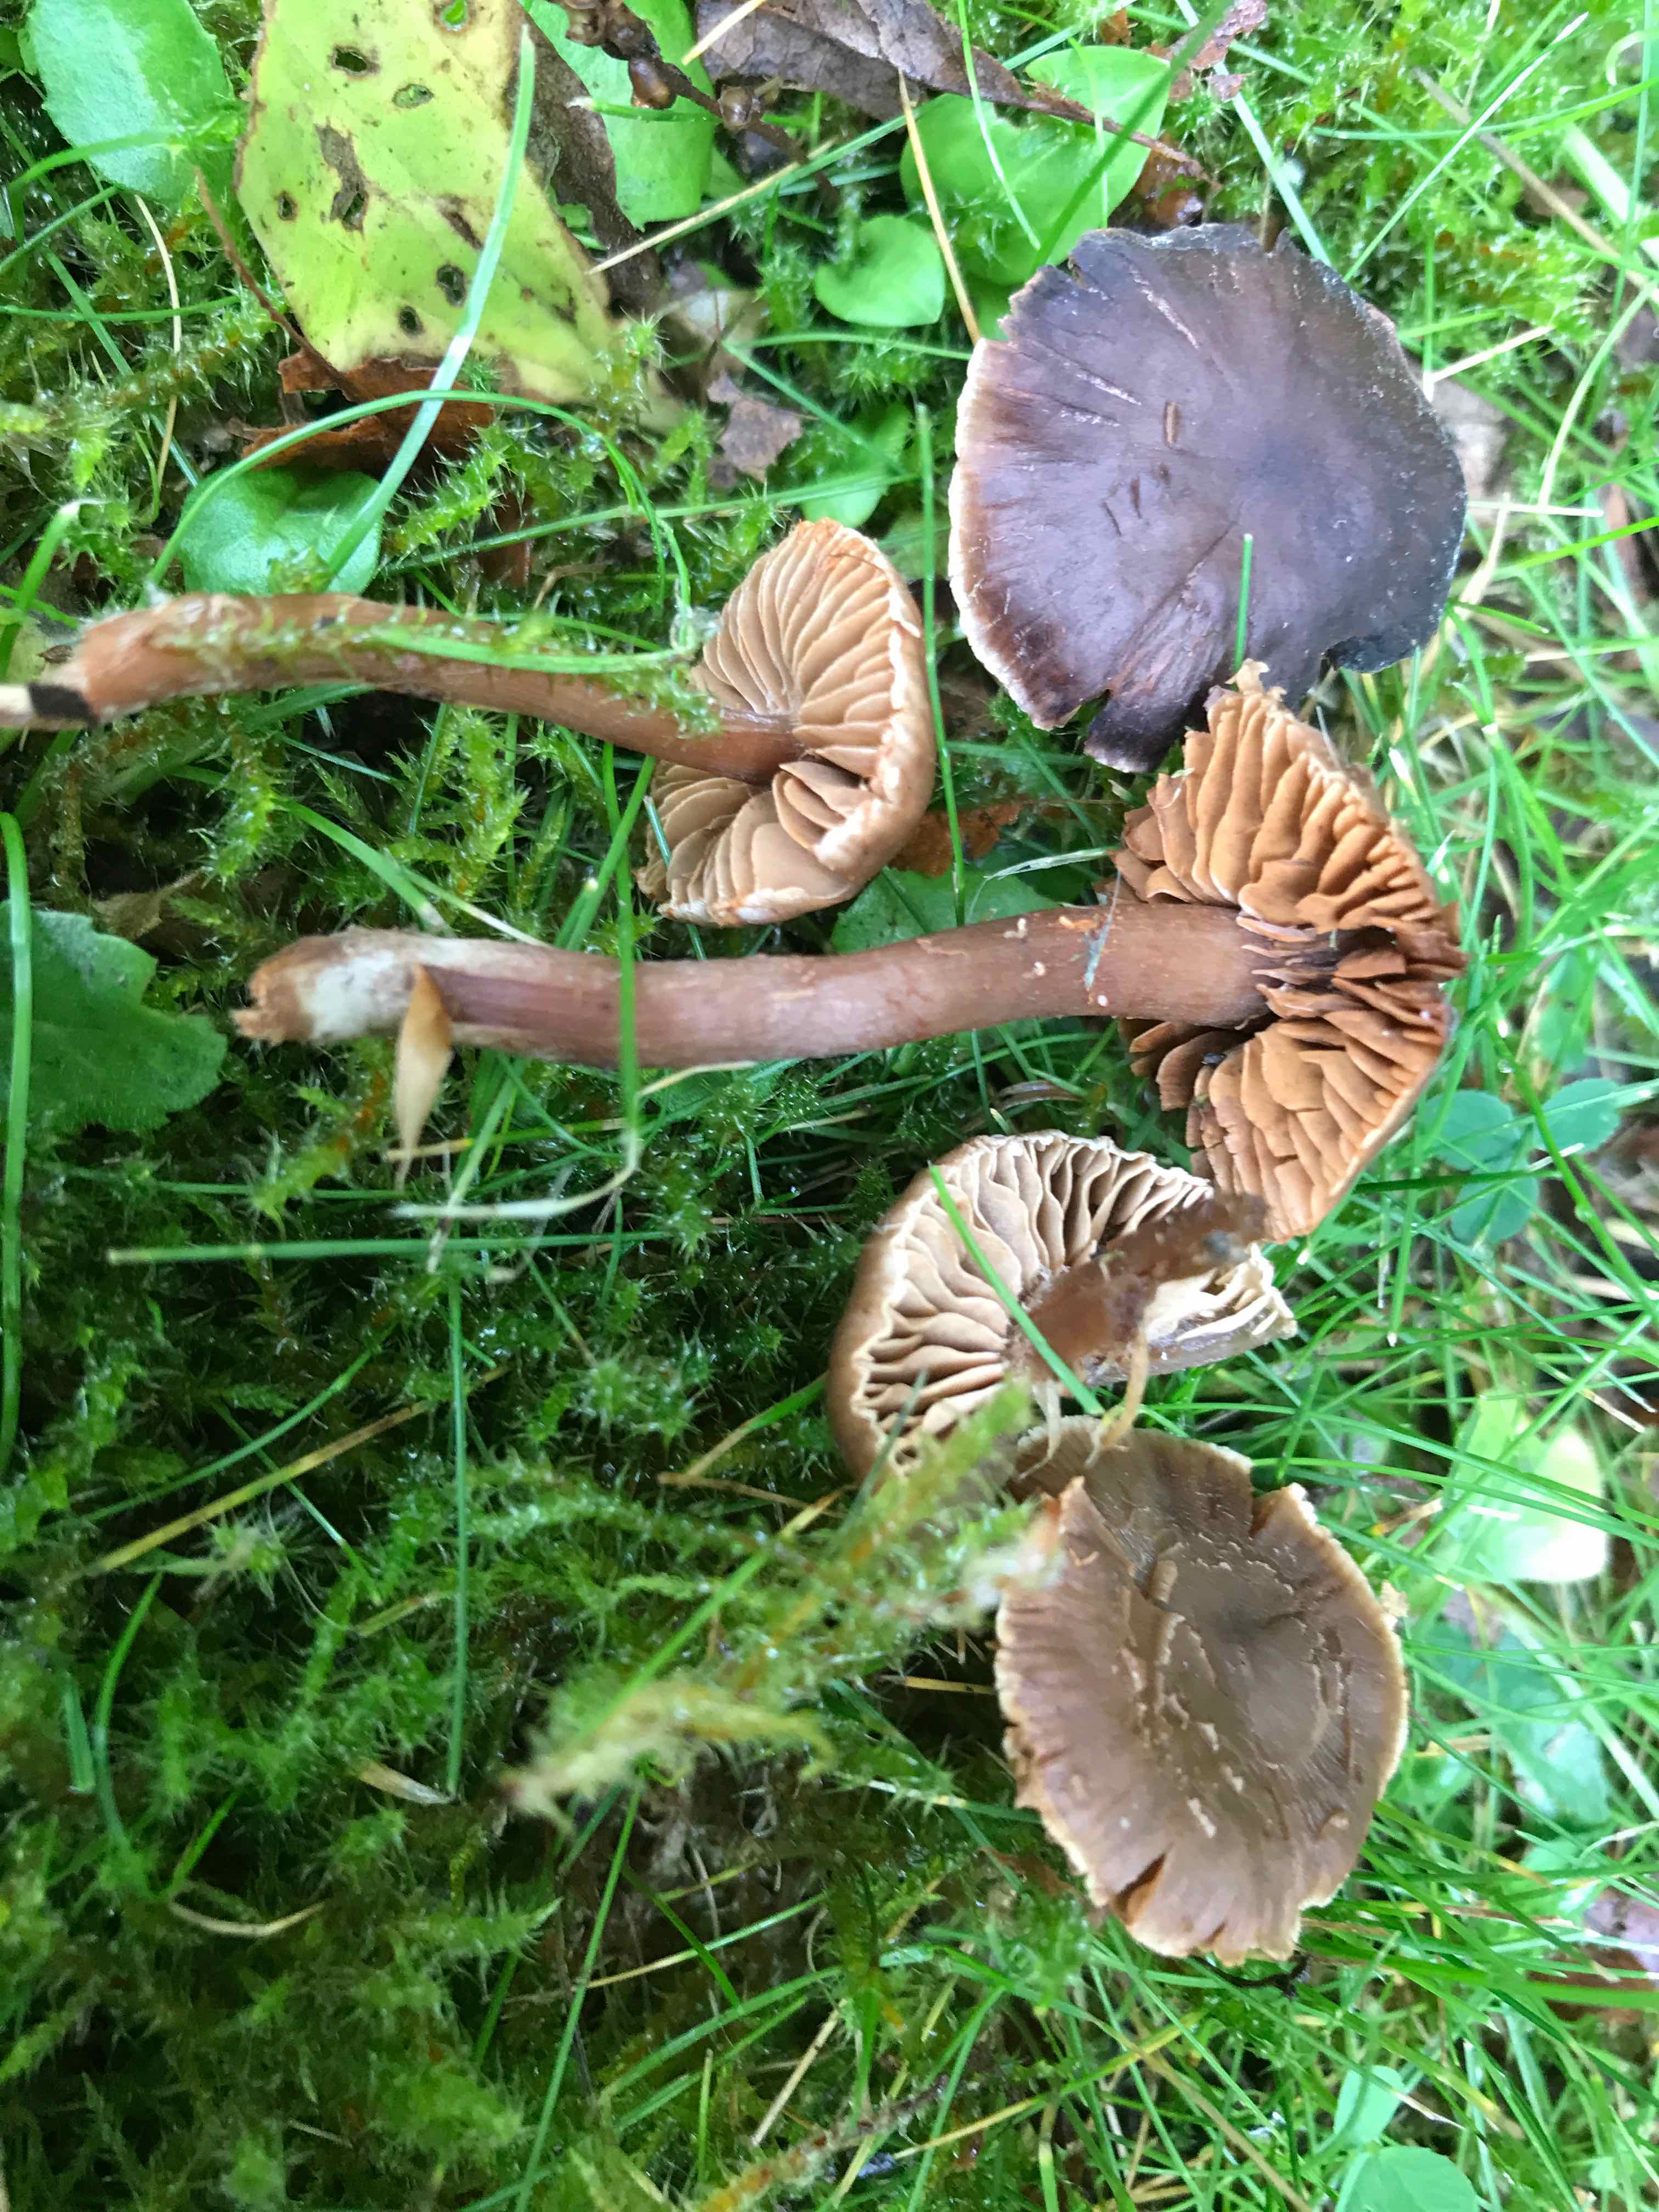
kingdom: Fungi
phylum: Basidiomycota
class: Agaricomycetes
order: Agaricales
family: Cortinariaceae
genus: Cortinarius
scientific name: Cortinarius
